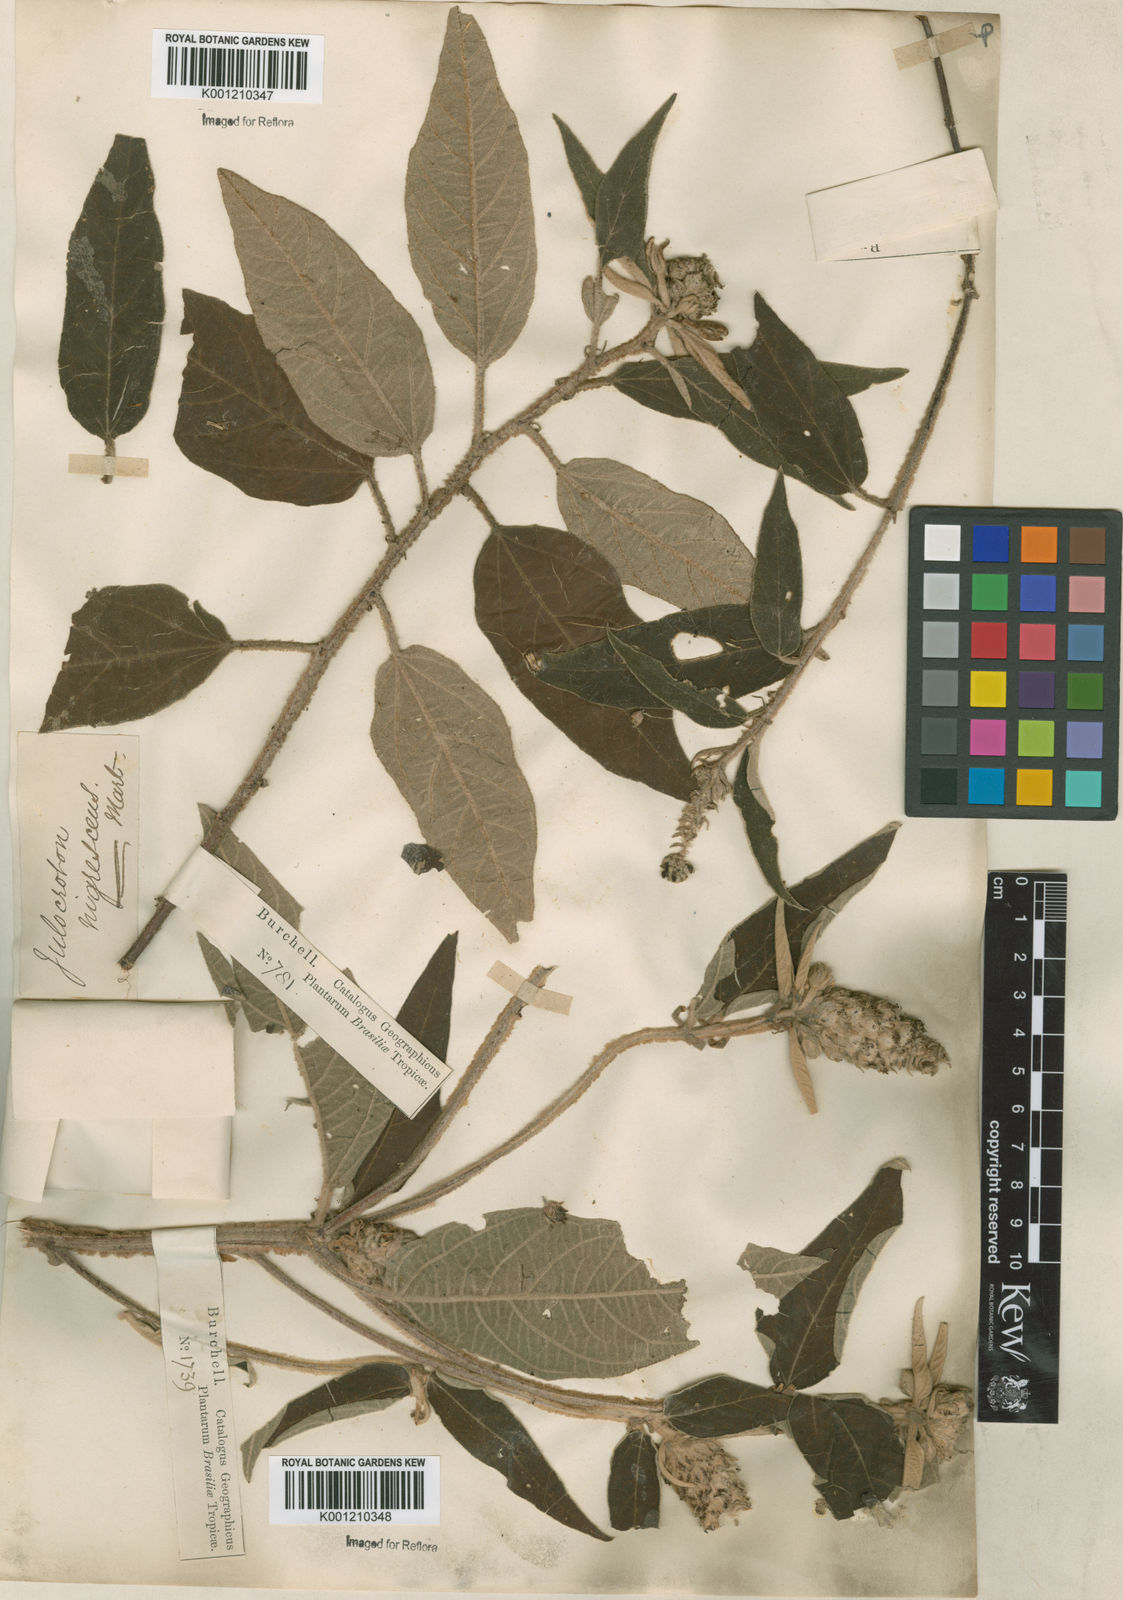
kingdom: Plantae
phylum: Tracheophyta
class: Magnoliopsida
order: Malpighiales
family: Euphorbiaceae
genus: Croton
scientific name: Croton gnaphaloides
